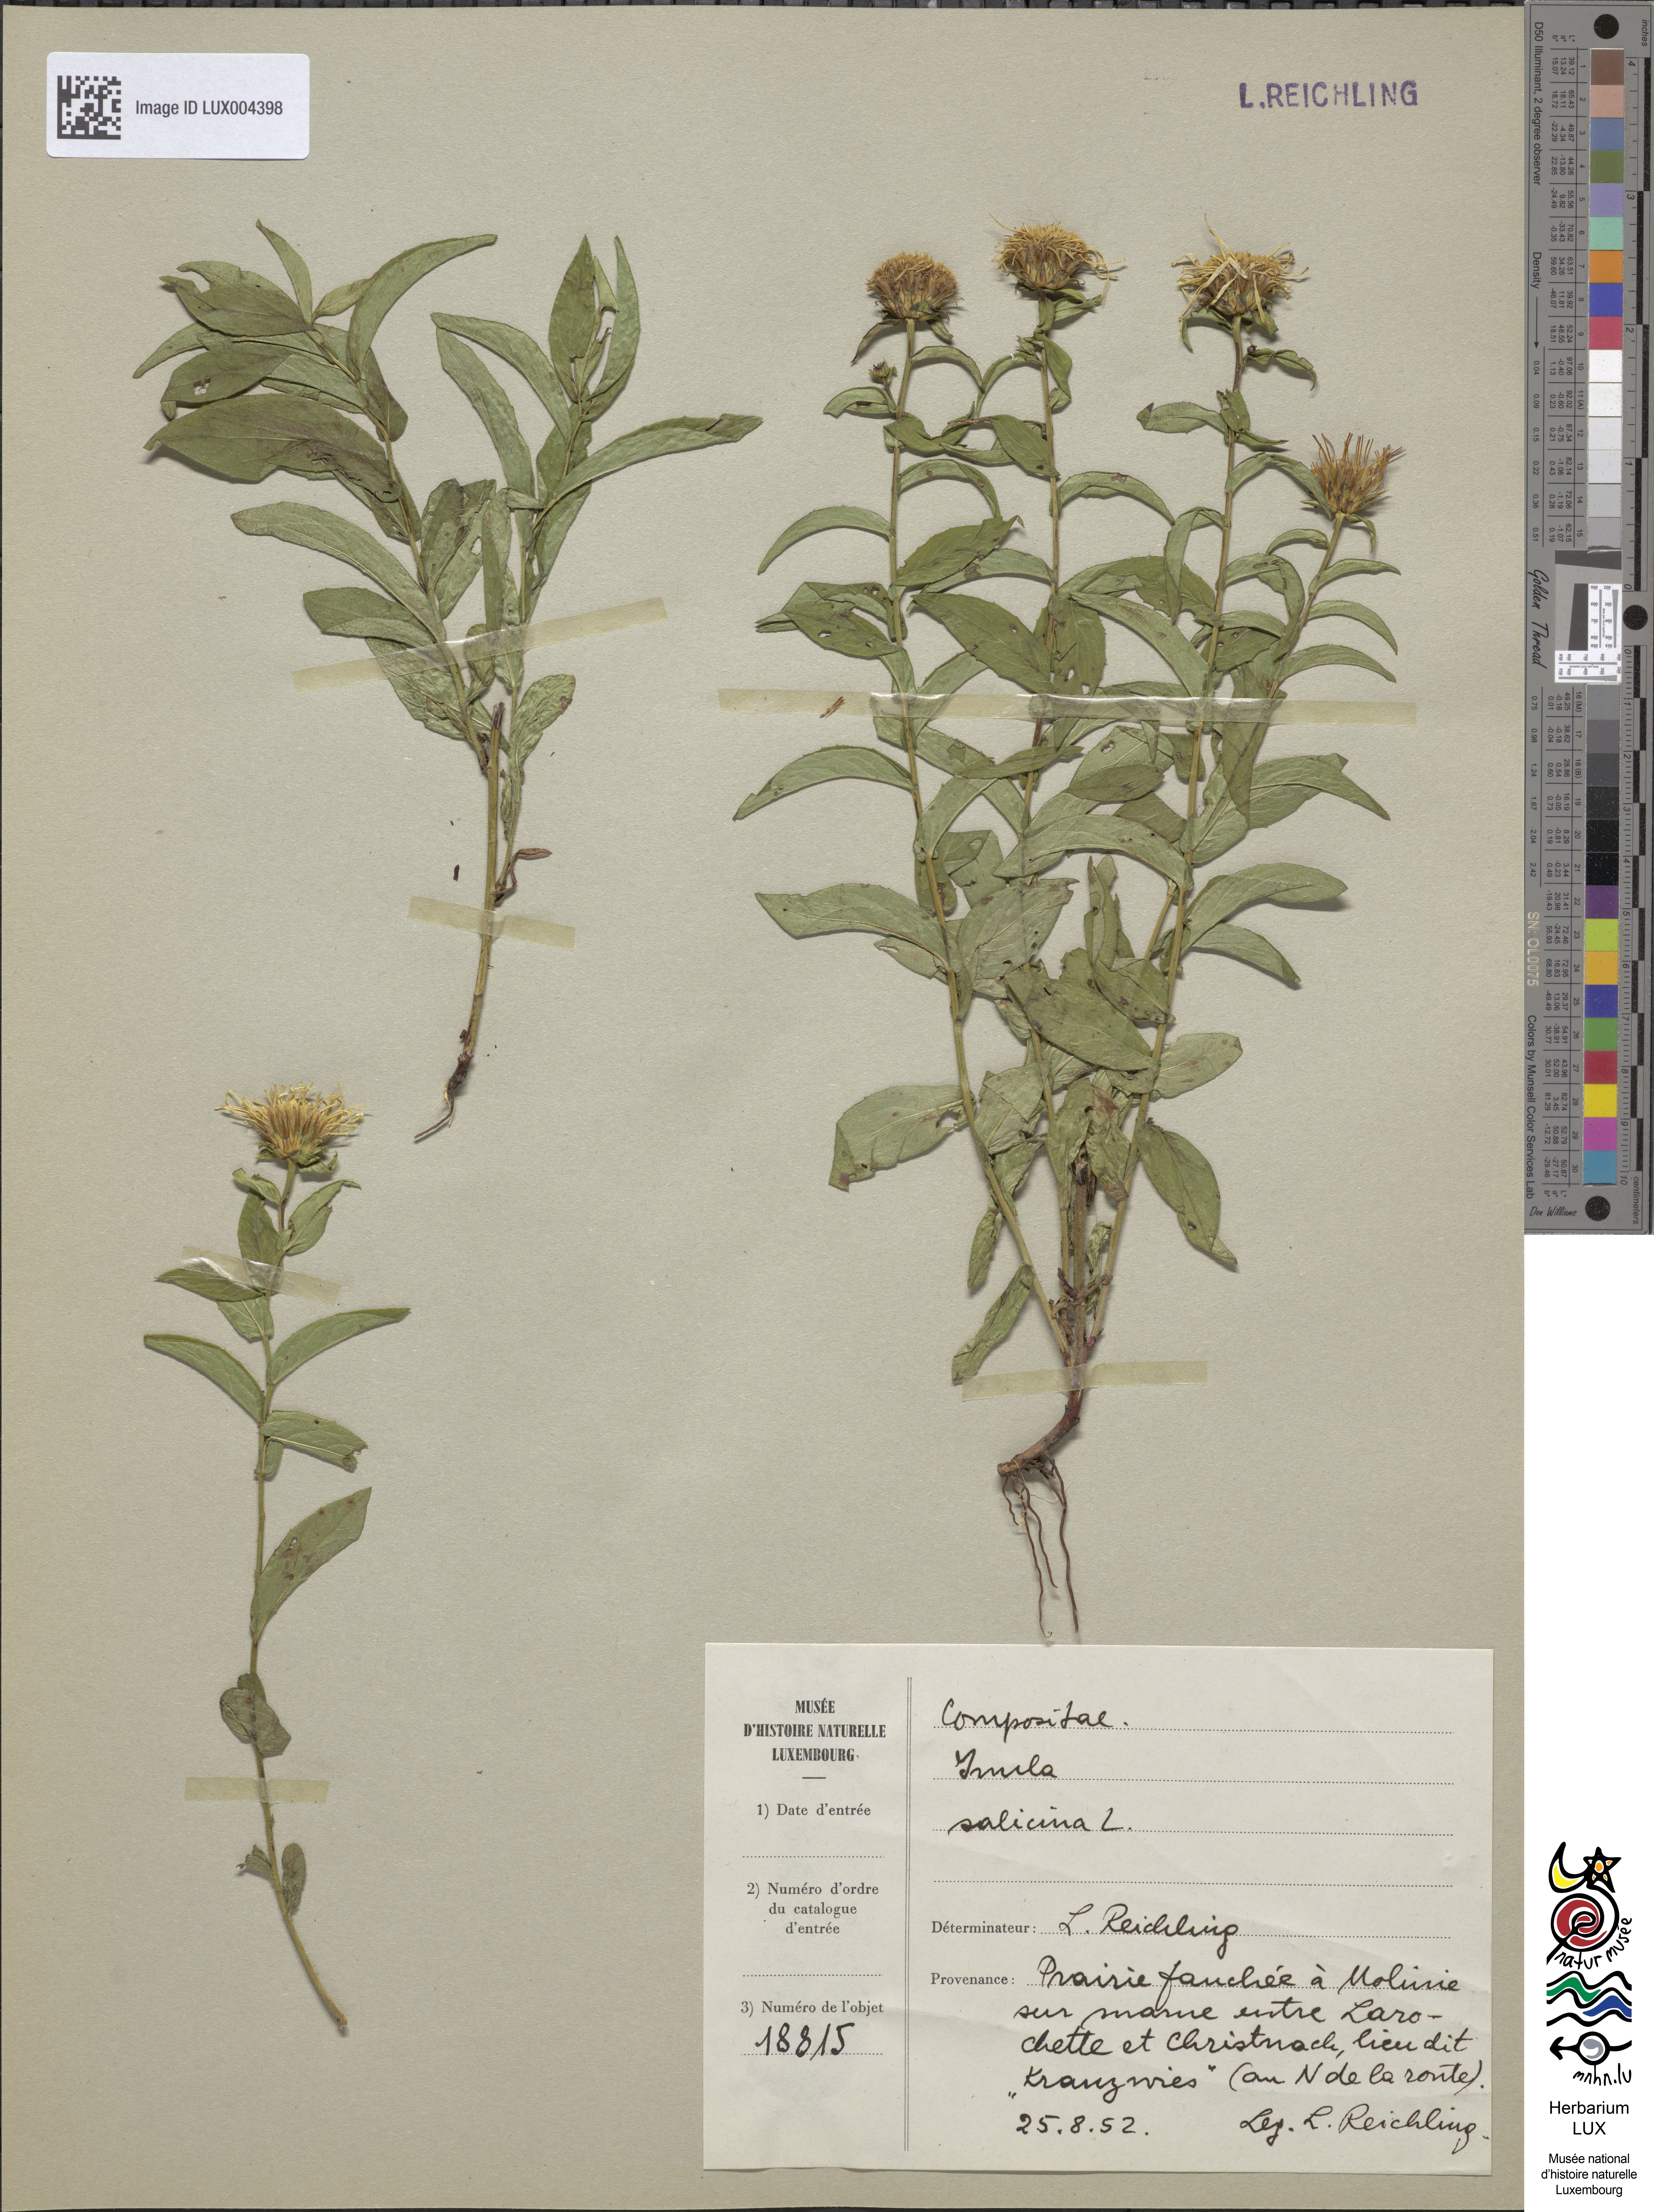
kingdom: Plantae
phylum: Tracheophyta
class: Magnoliopsida
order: Asterales
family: Asteraceae
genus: Pentanema
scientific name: Pentanema salicinum
